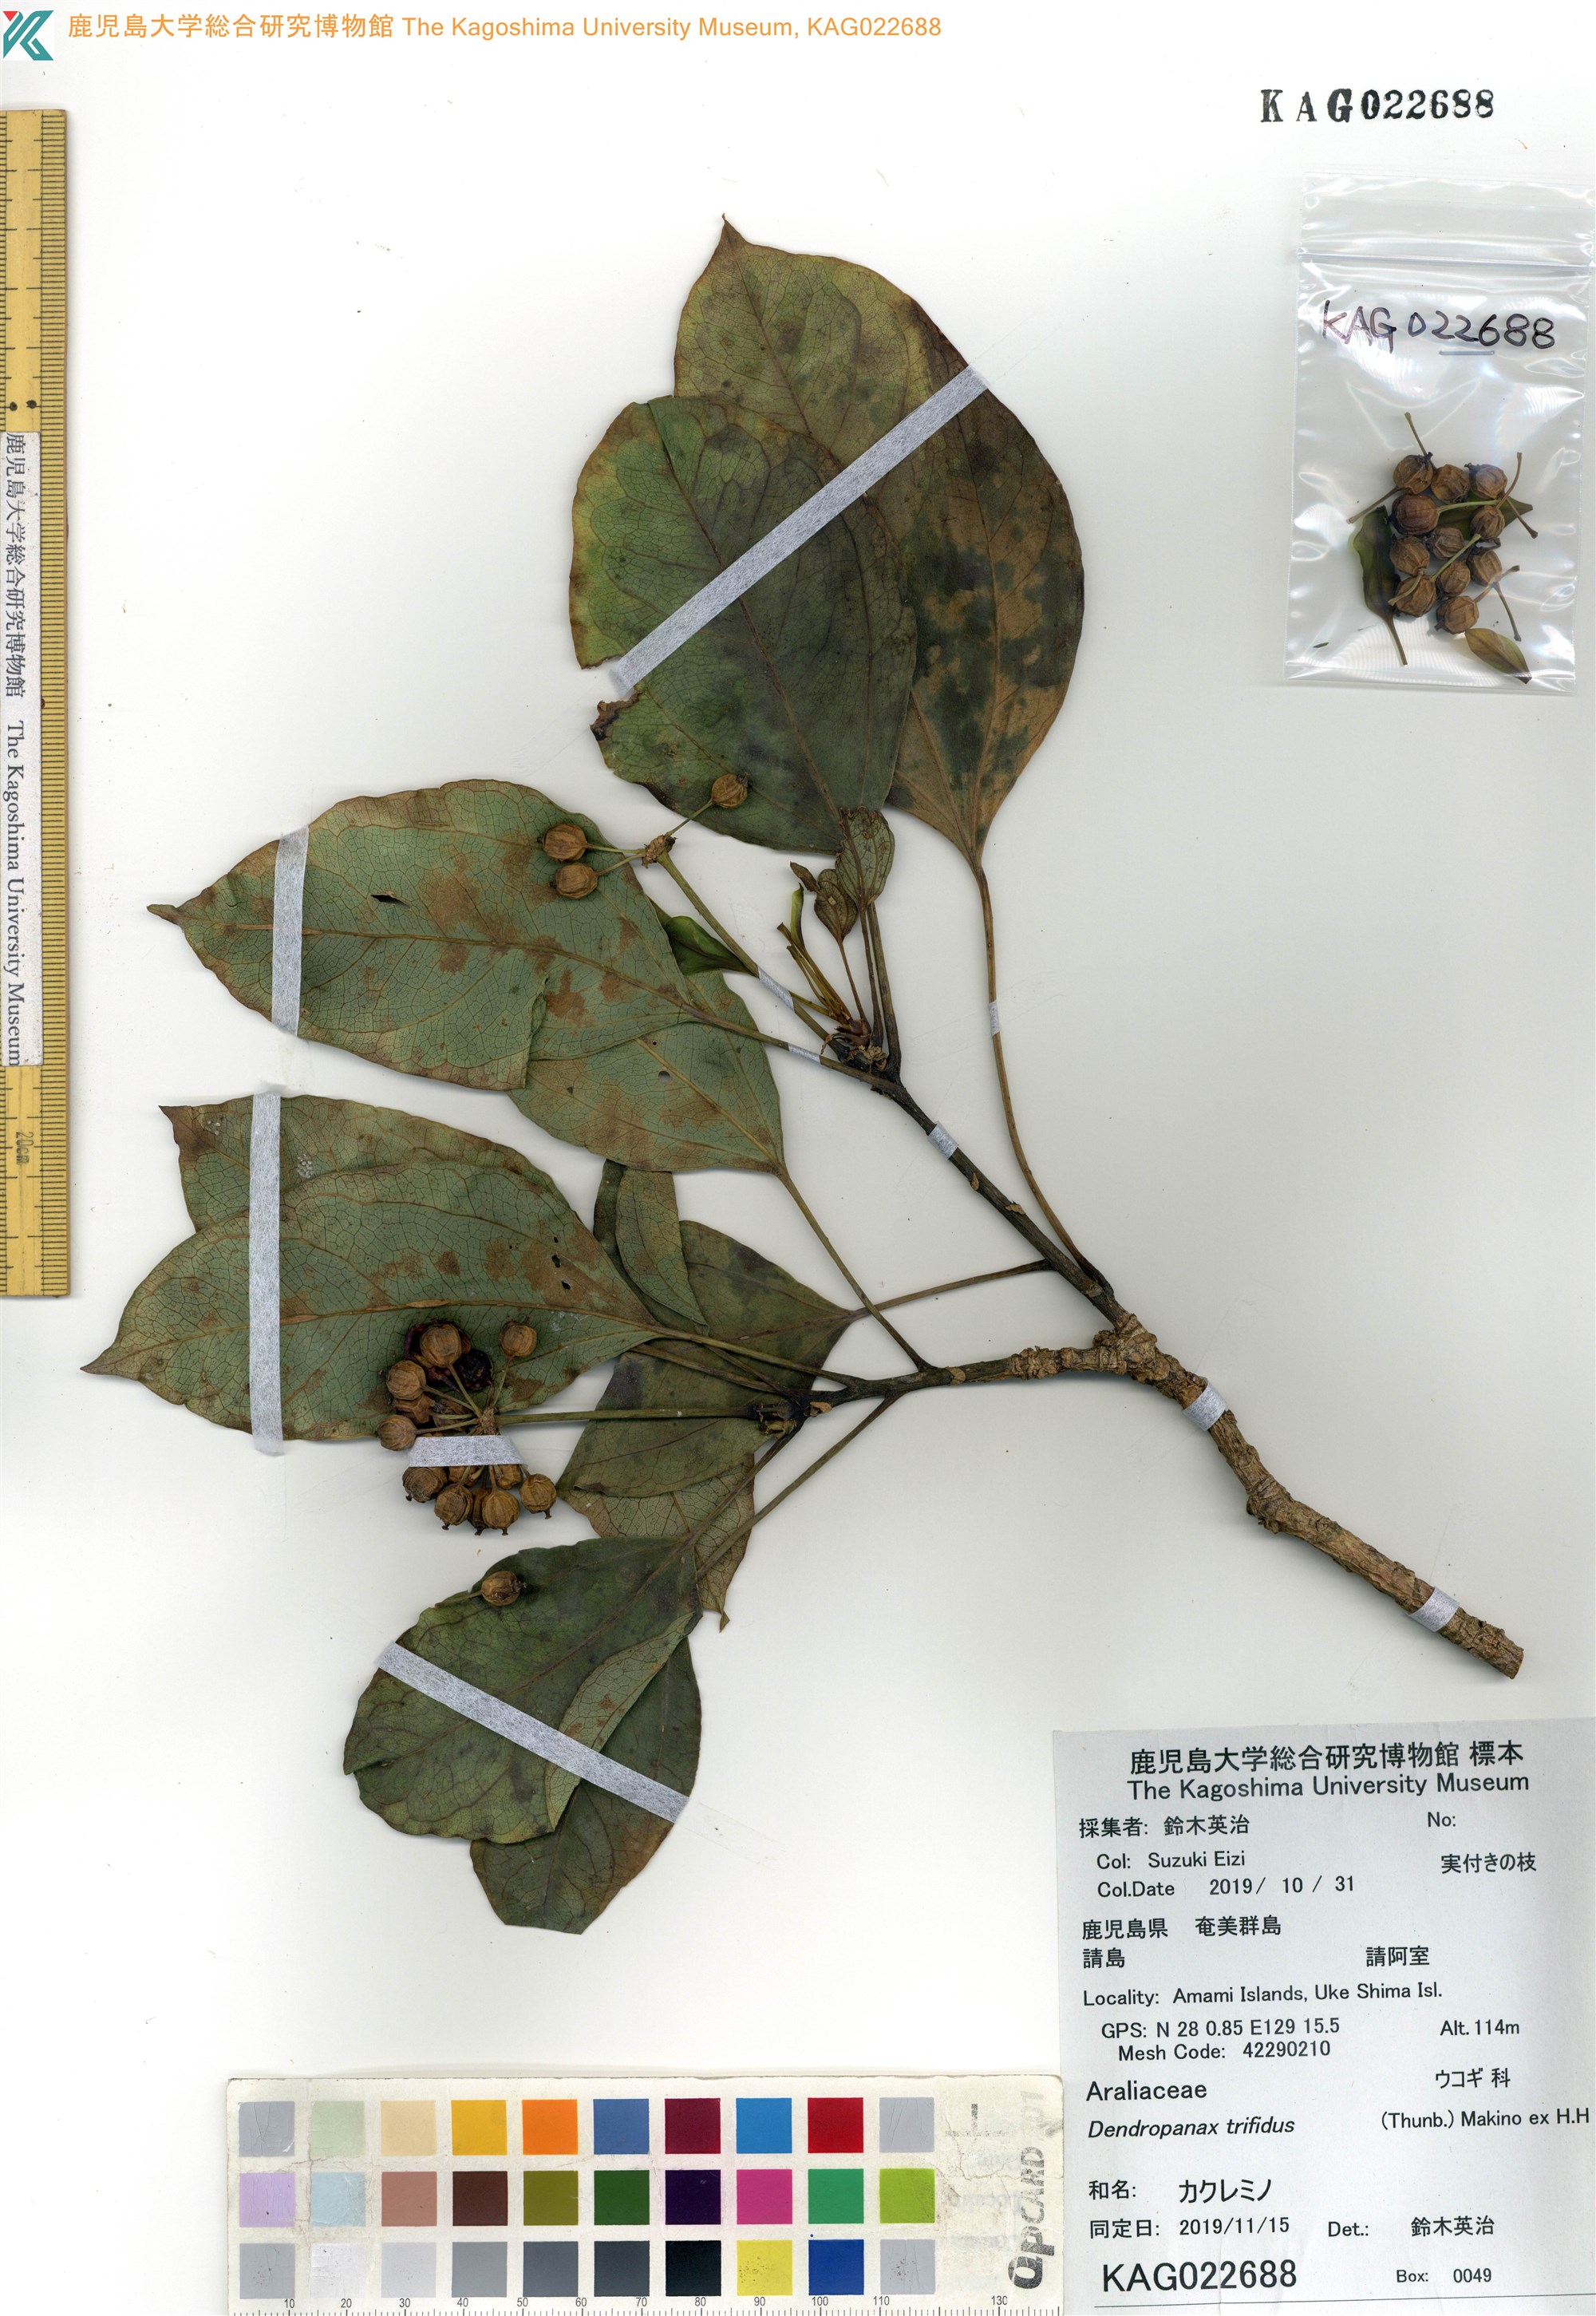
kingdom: Plantae
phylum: Tracheophyta
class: Magnoliopsida
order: Apiales
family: Araliaceae
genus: Dendropanax
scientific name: Dendropanax trifidus
